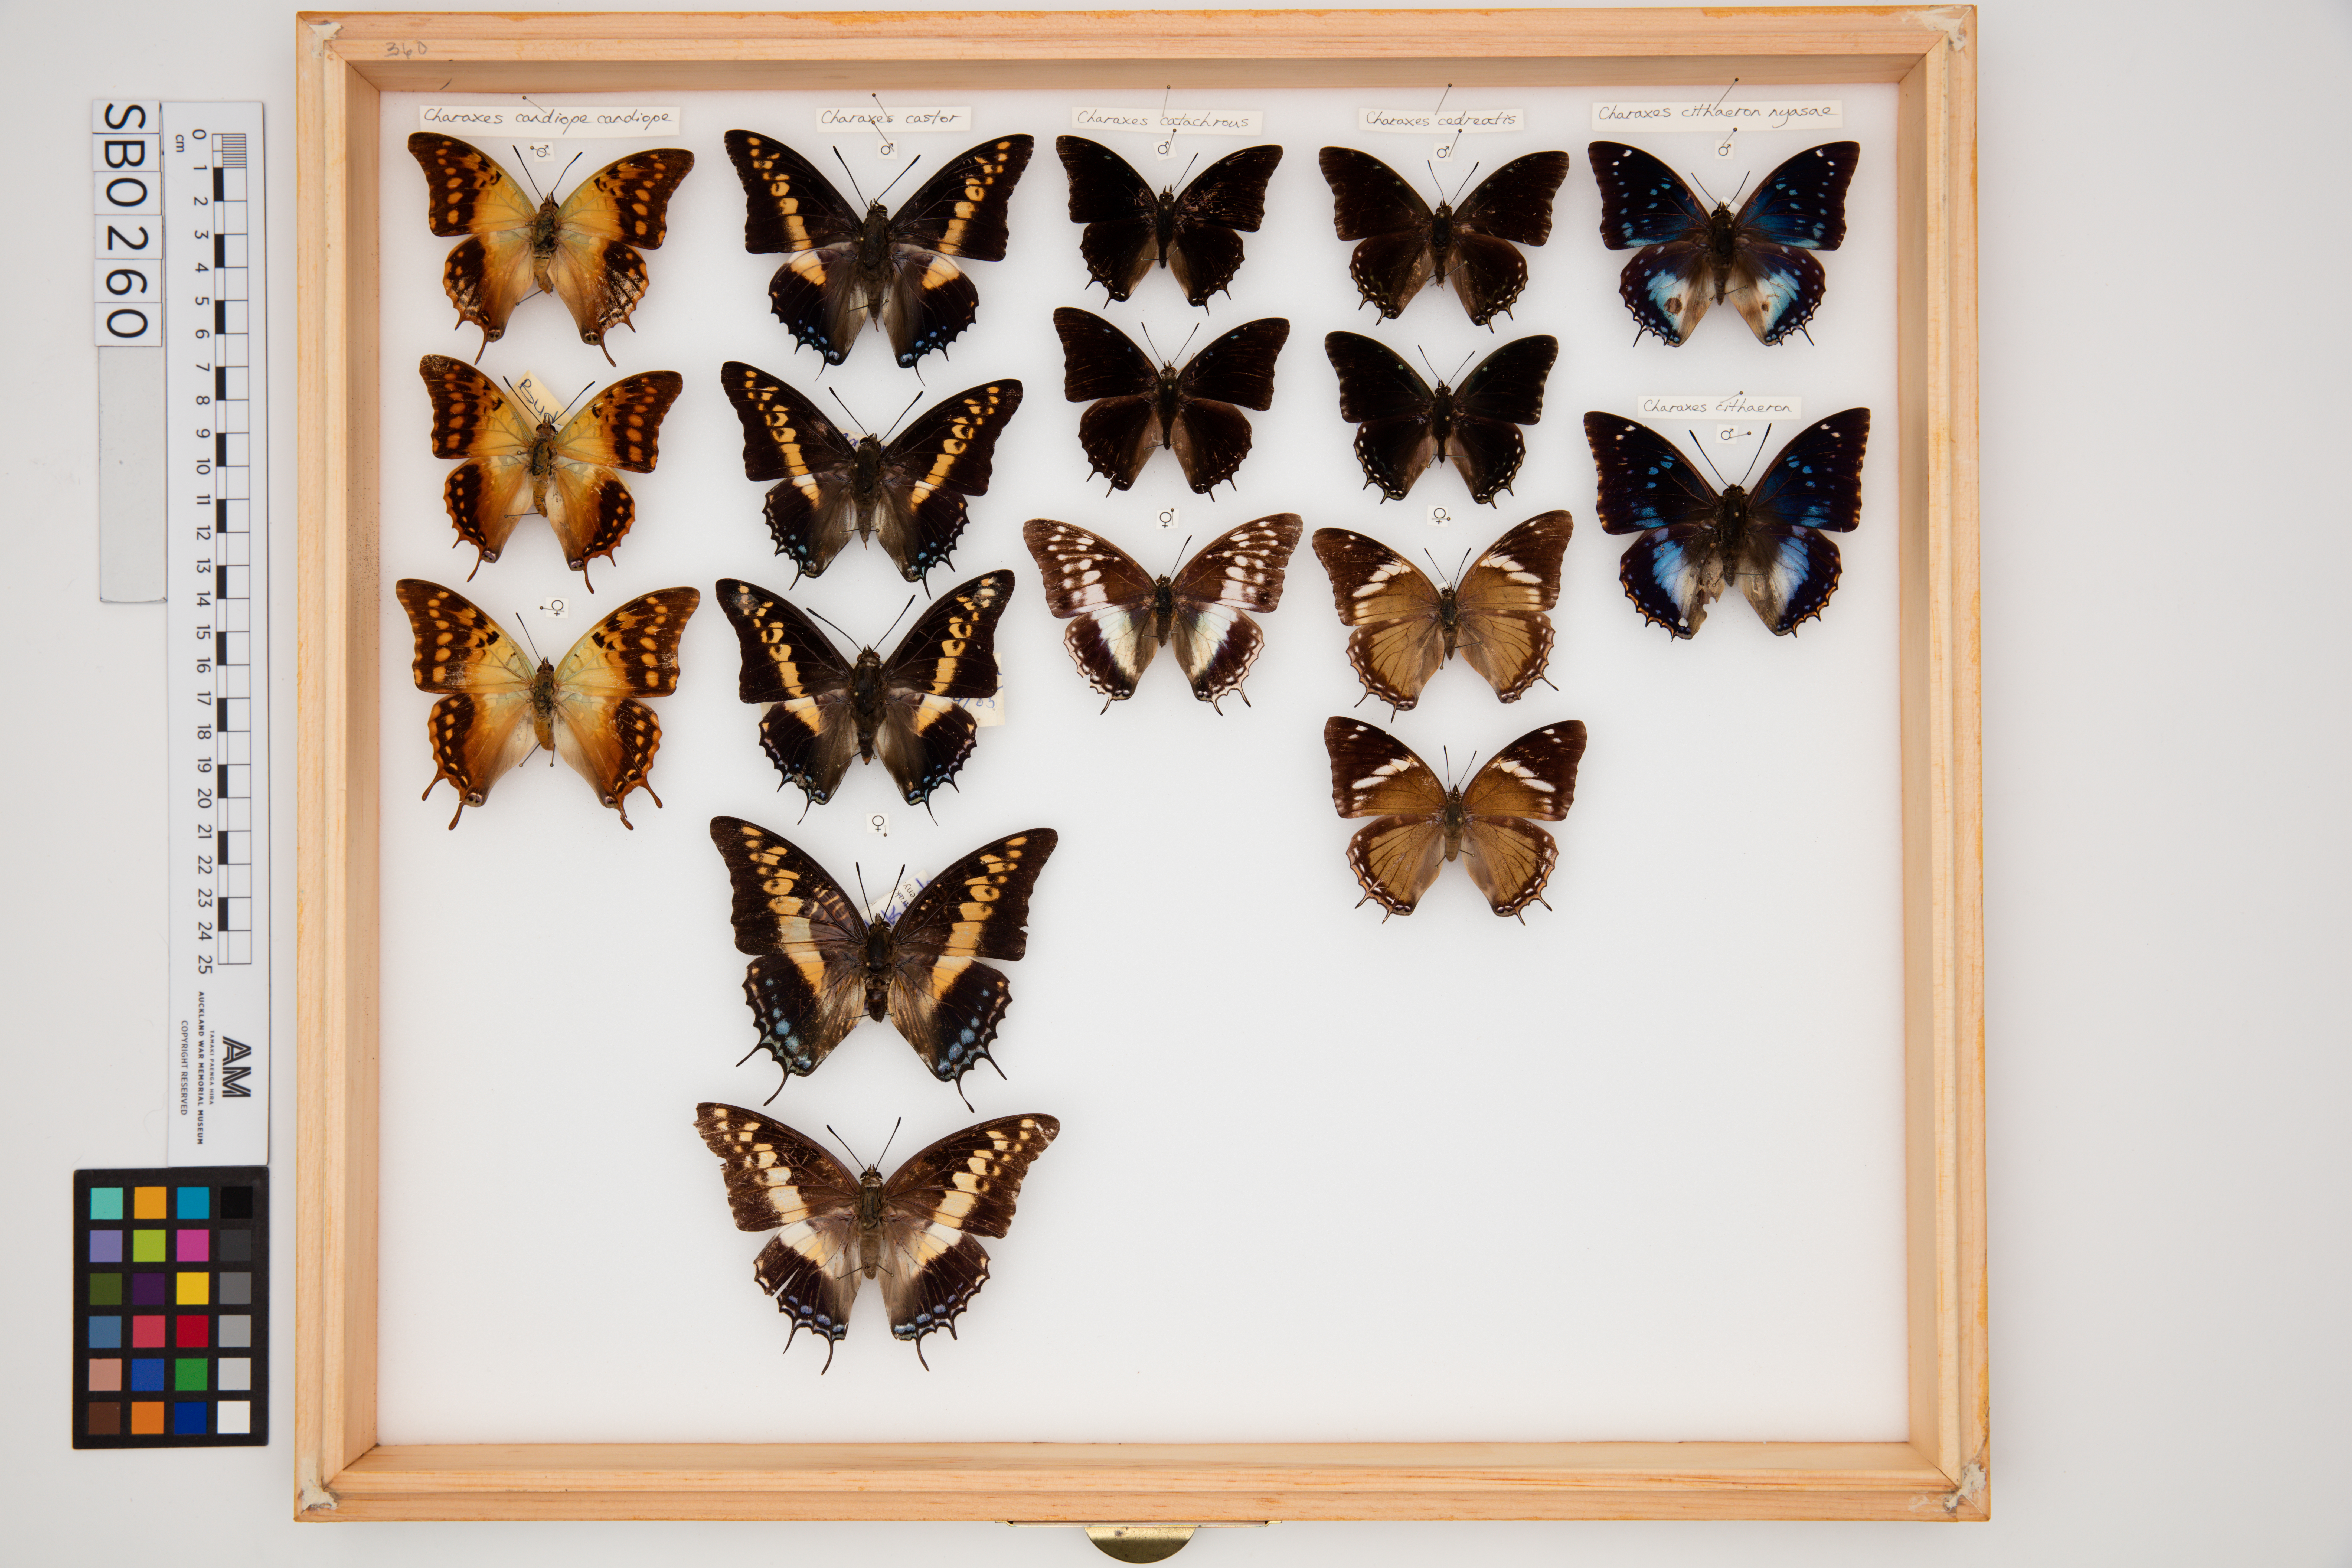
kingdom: Animalia
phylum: Arthropoda
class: Insecta
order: Lepidoptera
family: Nymphalidae
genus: Charaxes
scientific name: Charaxes cedreatis
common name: Green demon charaxes
